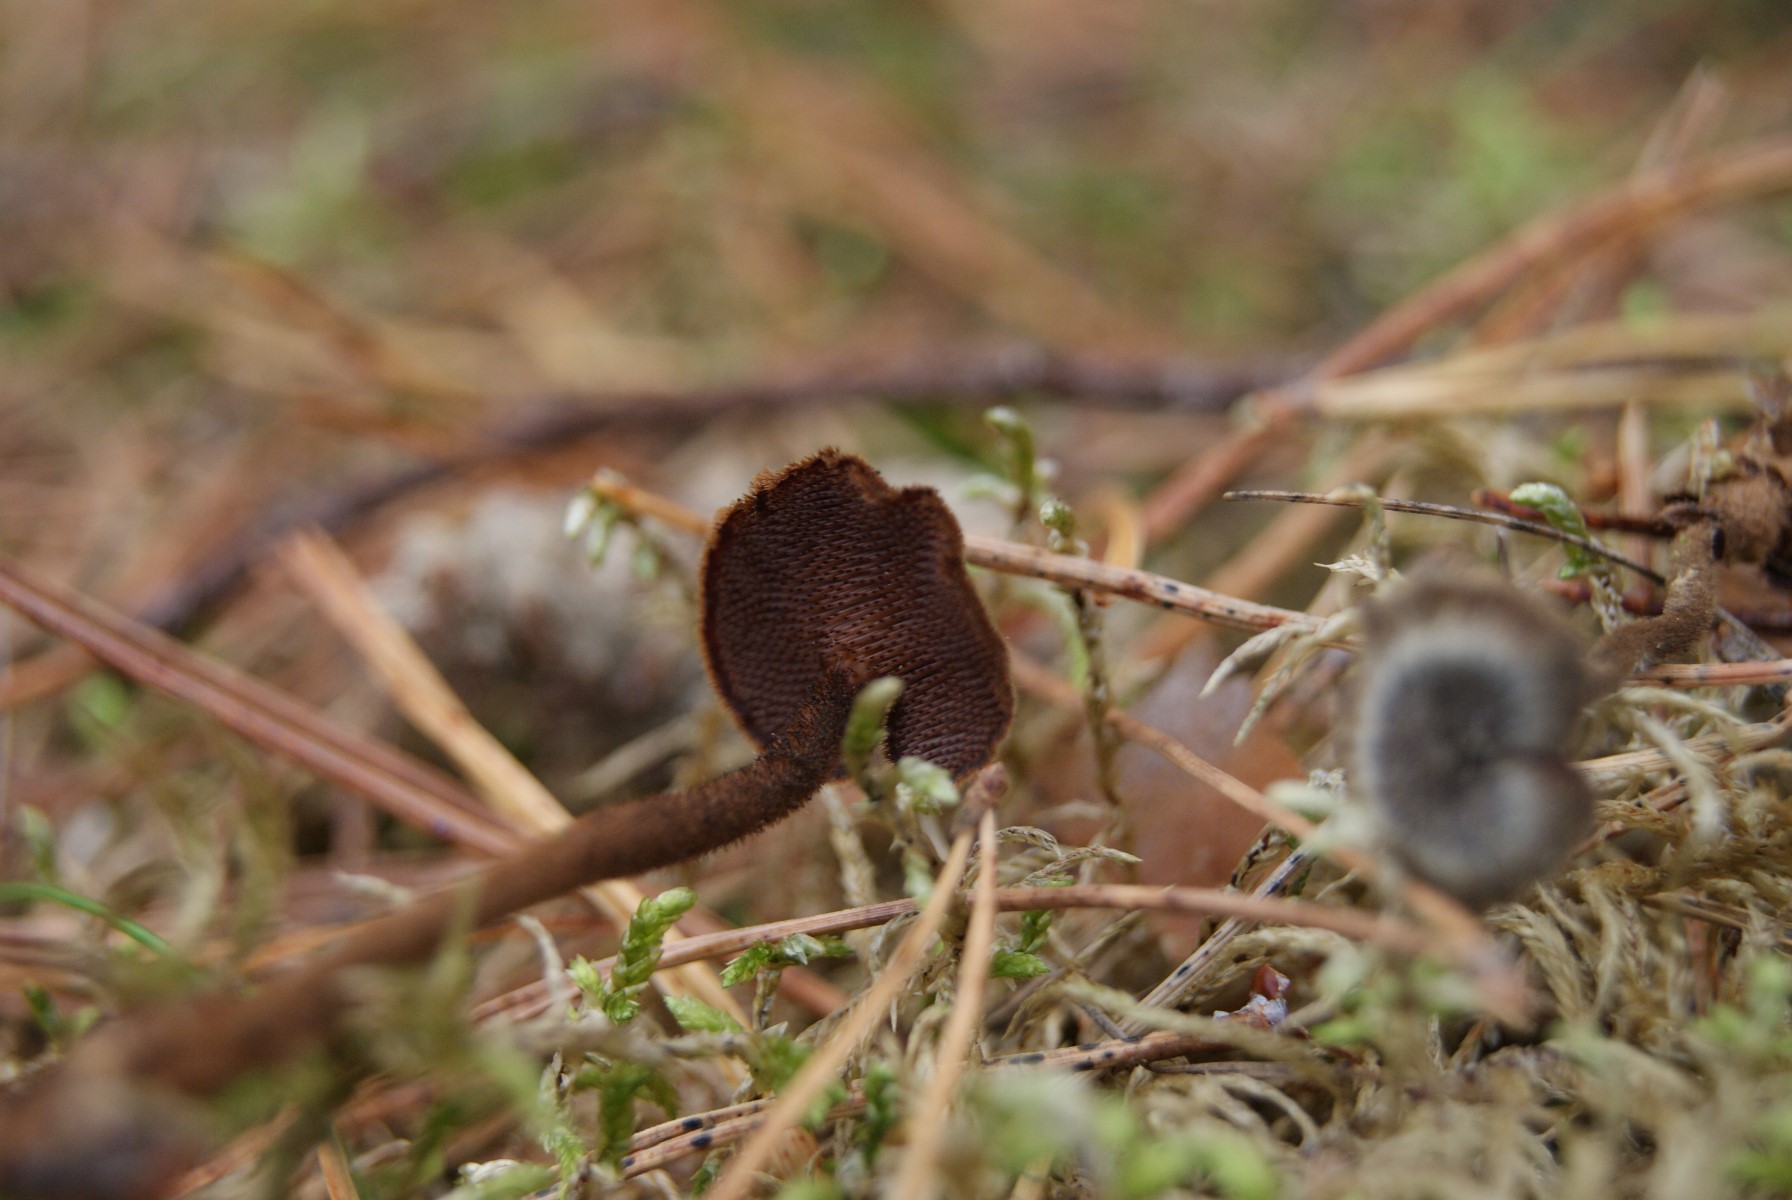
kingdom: Fungi
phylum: Basidiomycota
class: Agaricomycetes
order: Russulales
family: Auriscalpiaceae
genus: Auriscalpium
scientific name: Auriscalpium vulgare
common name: koglepigsvamp
